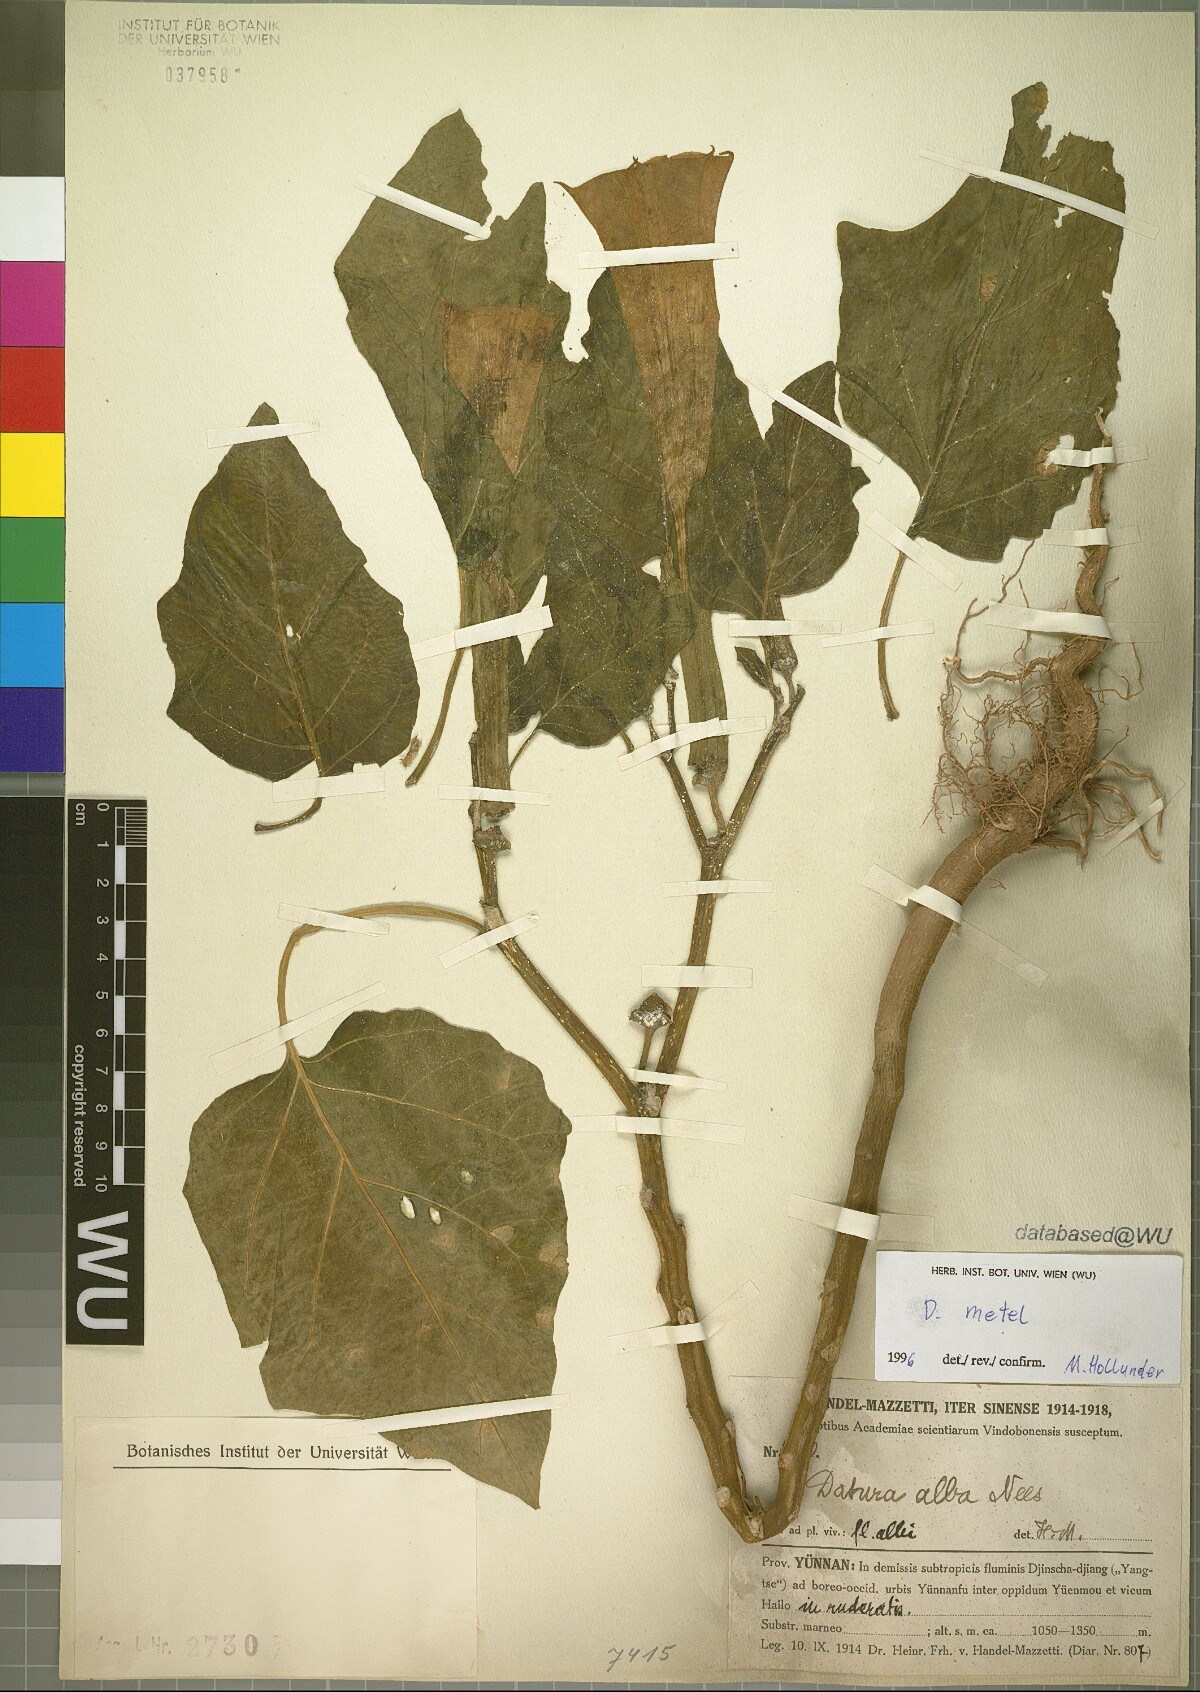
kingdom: Plantae
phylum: Tracheophyta
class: Magnoliopsida
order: Solanales
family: Solanaceae
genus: Datura
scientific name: Datura metel
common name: Jimsonweed
